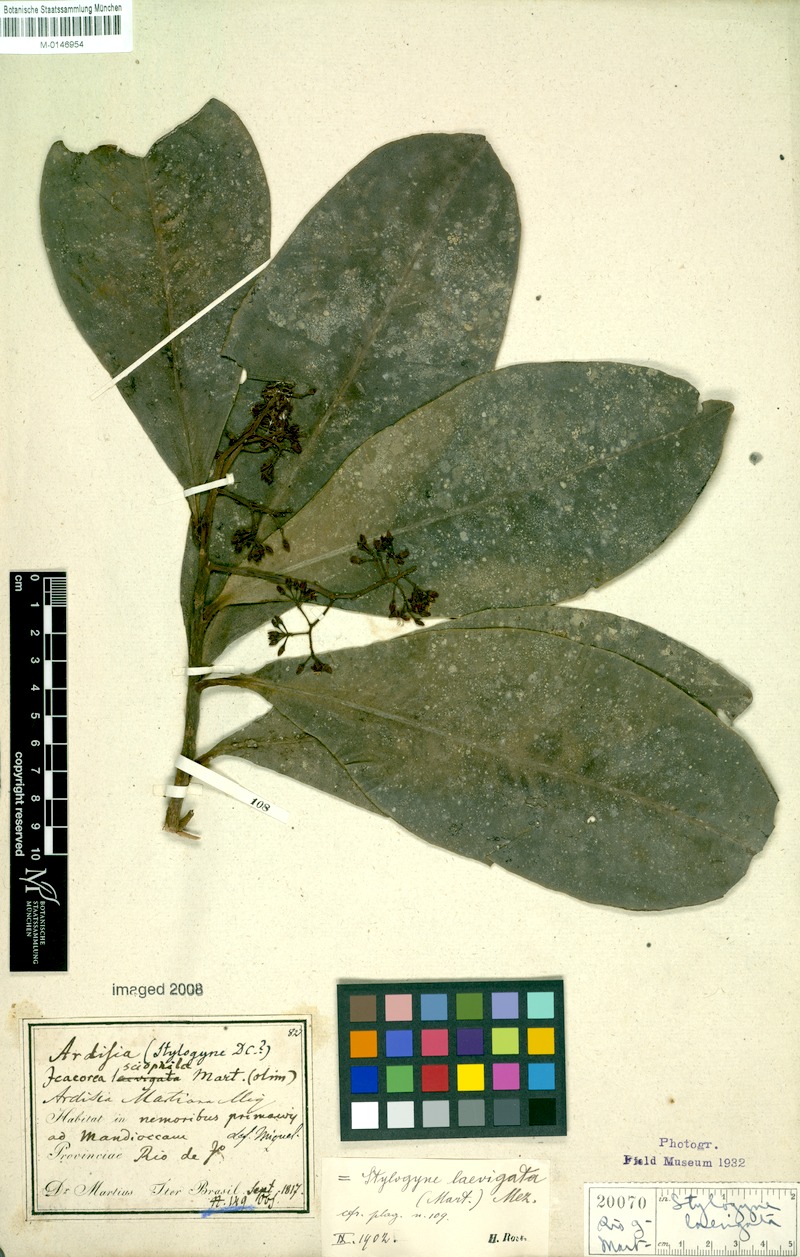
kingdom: Plantae
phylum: Tracheophyta
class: Magnoliopsida
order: Ericales
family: Primulaceae
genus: Stylogyne
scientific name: Stylogyne lhotzkyana
